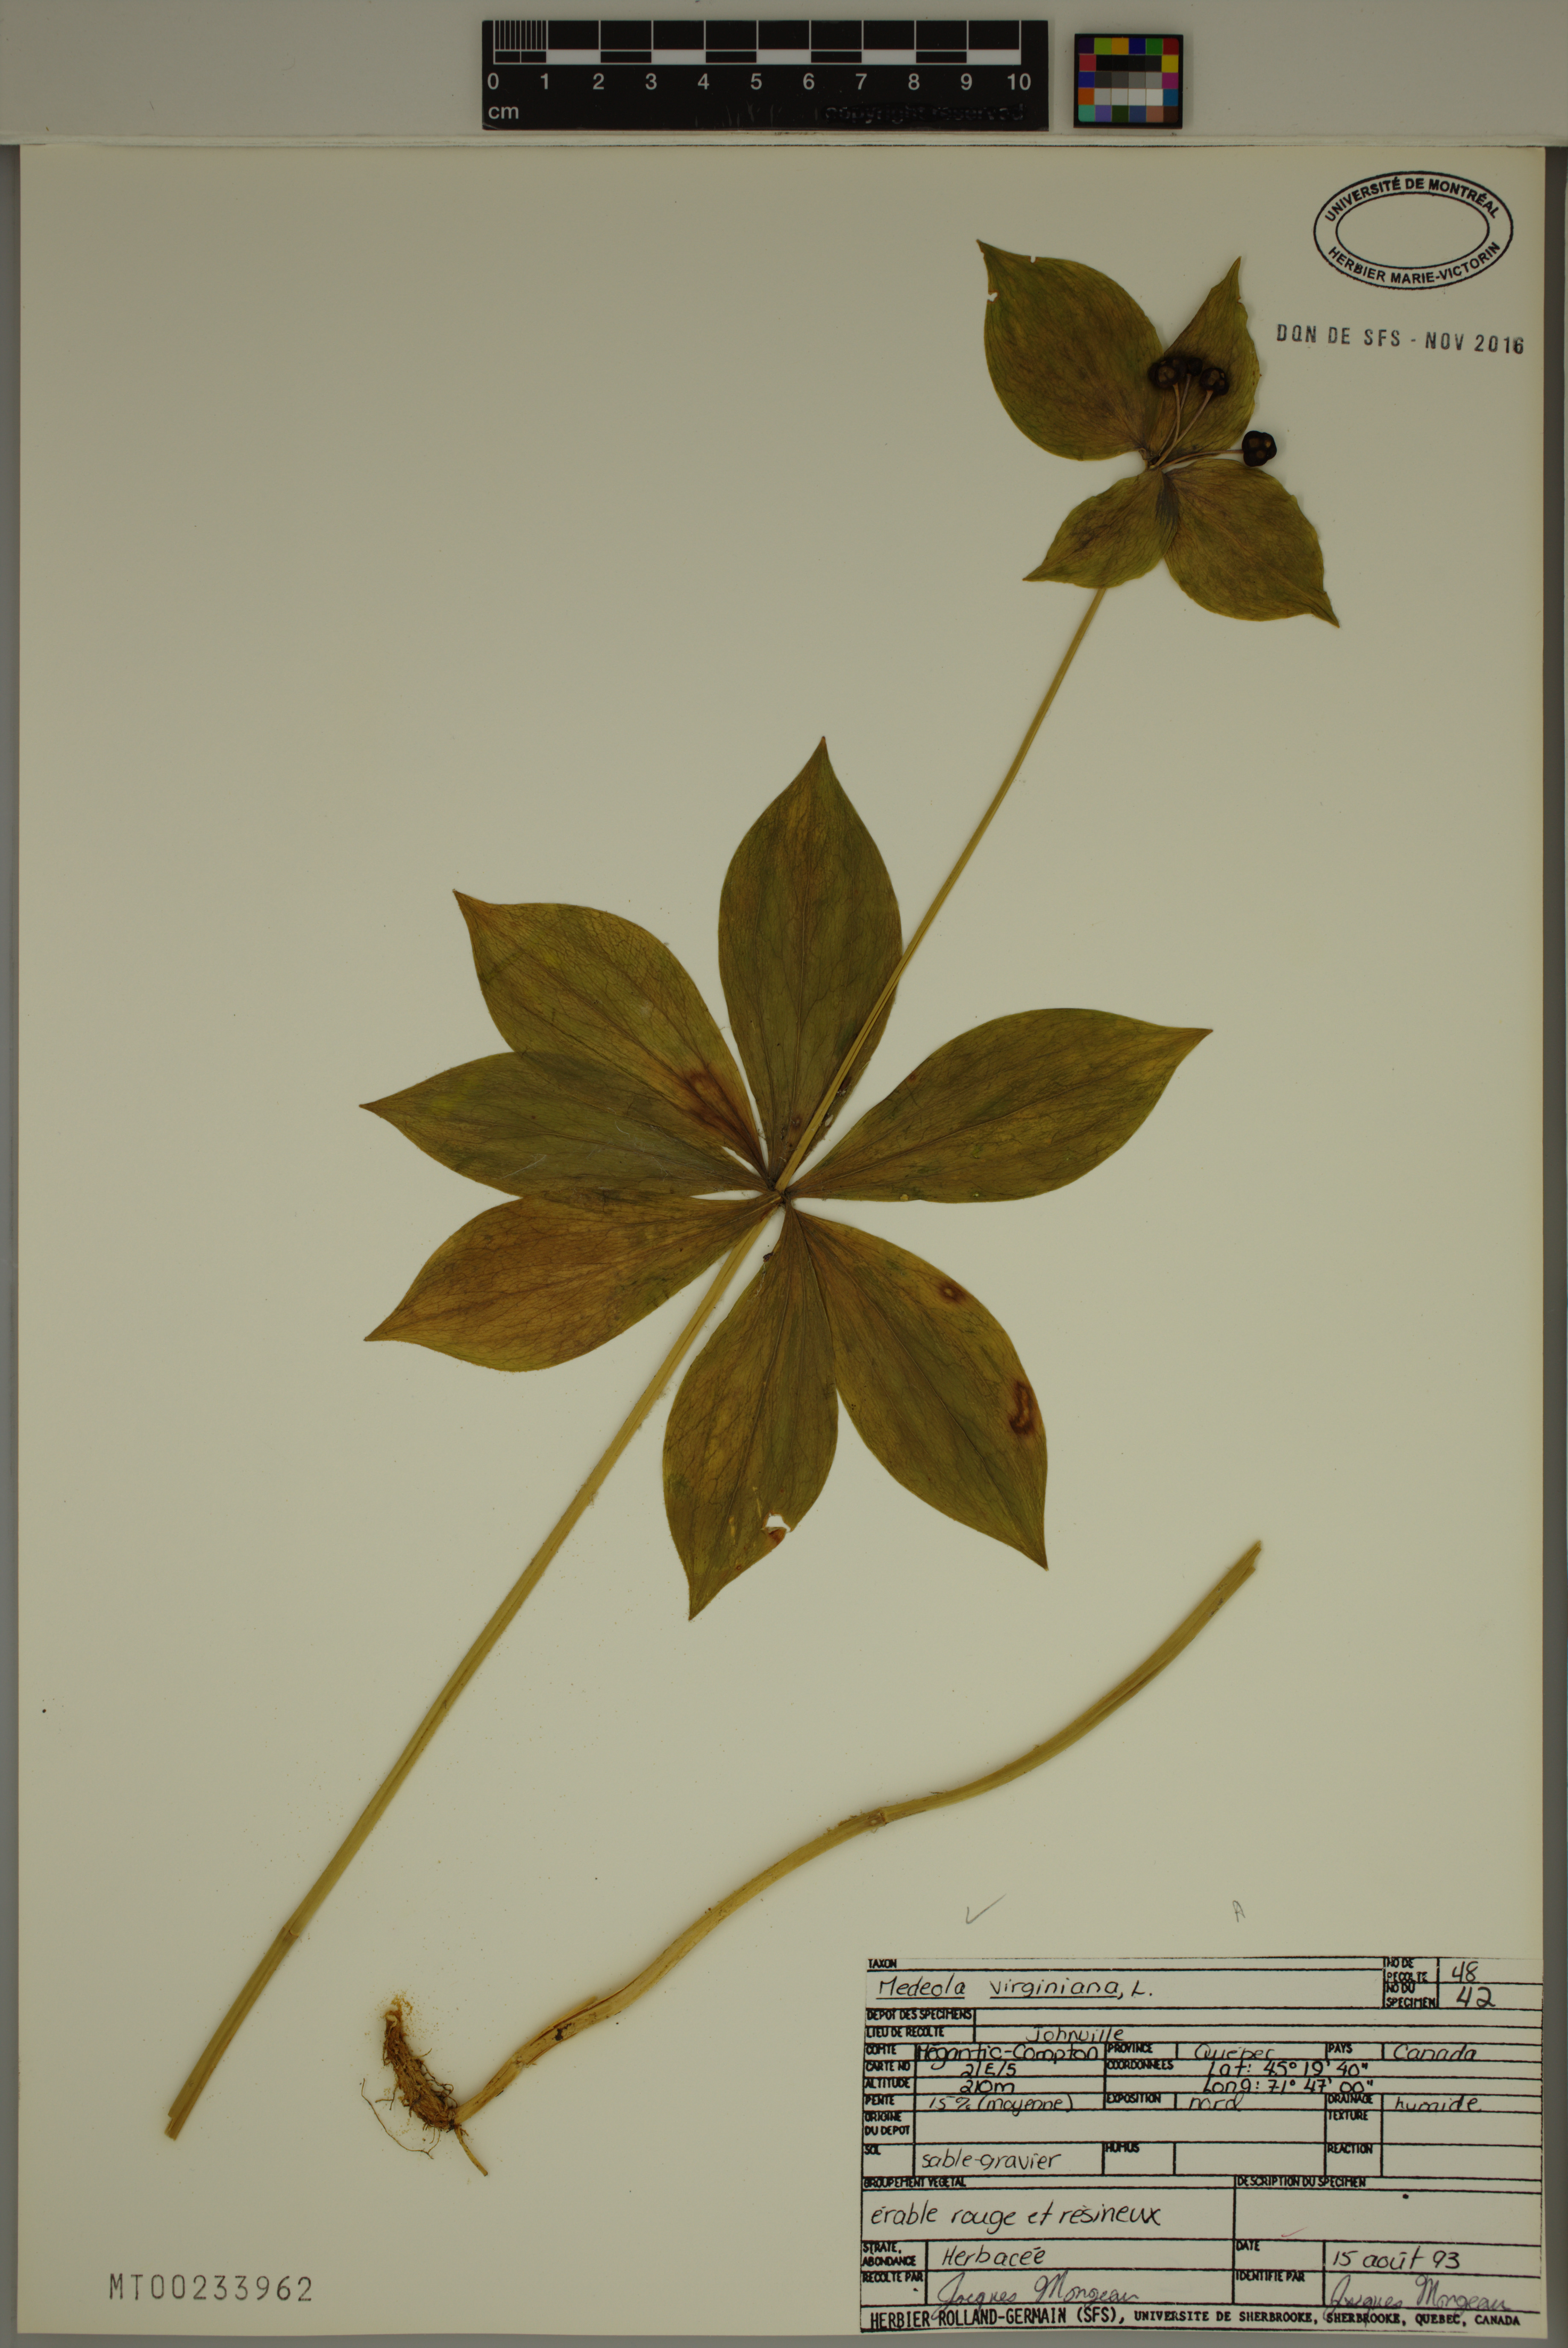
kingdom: Plantae
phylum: Tracheophyta
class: Liliopsida
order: Liliales
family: Liliaceae
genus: Medeola
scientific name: Medeola virginiana
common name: Indian cucumber-root
